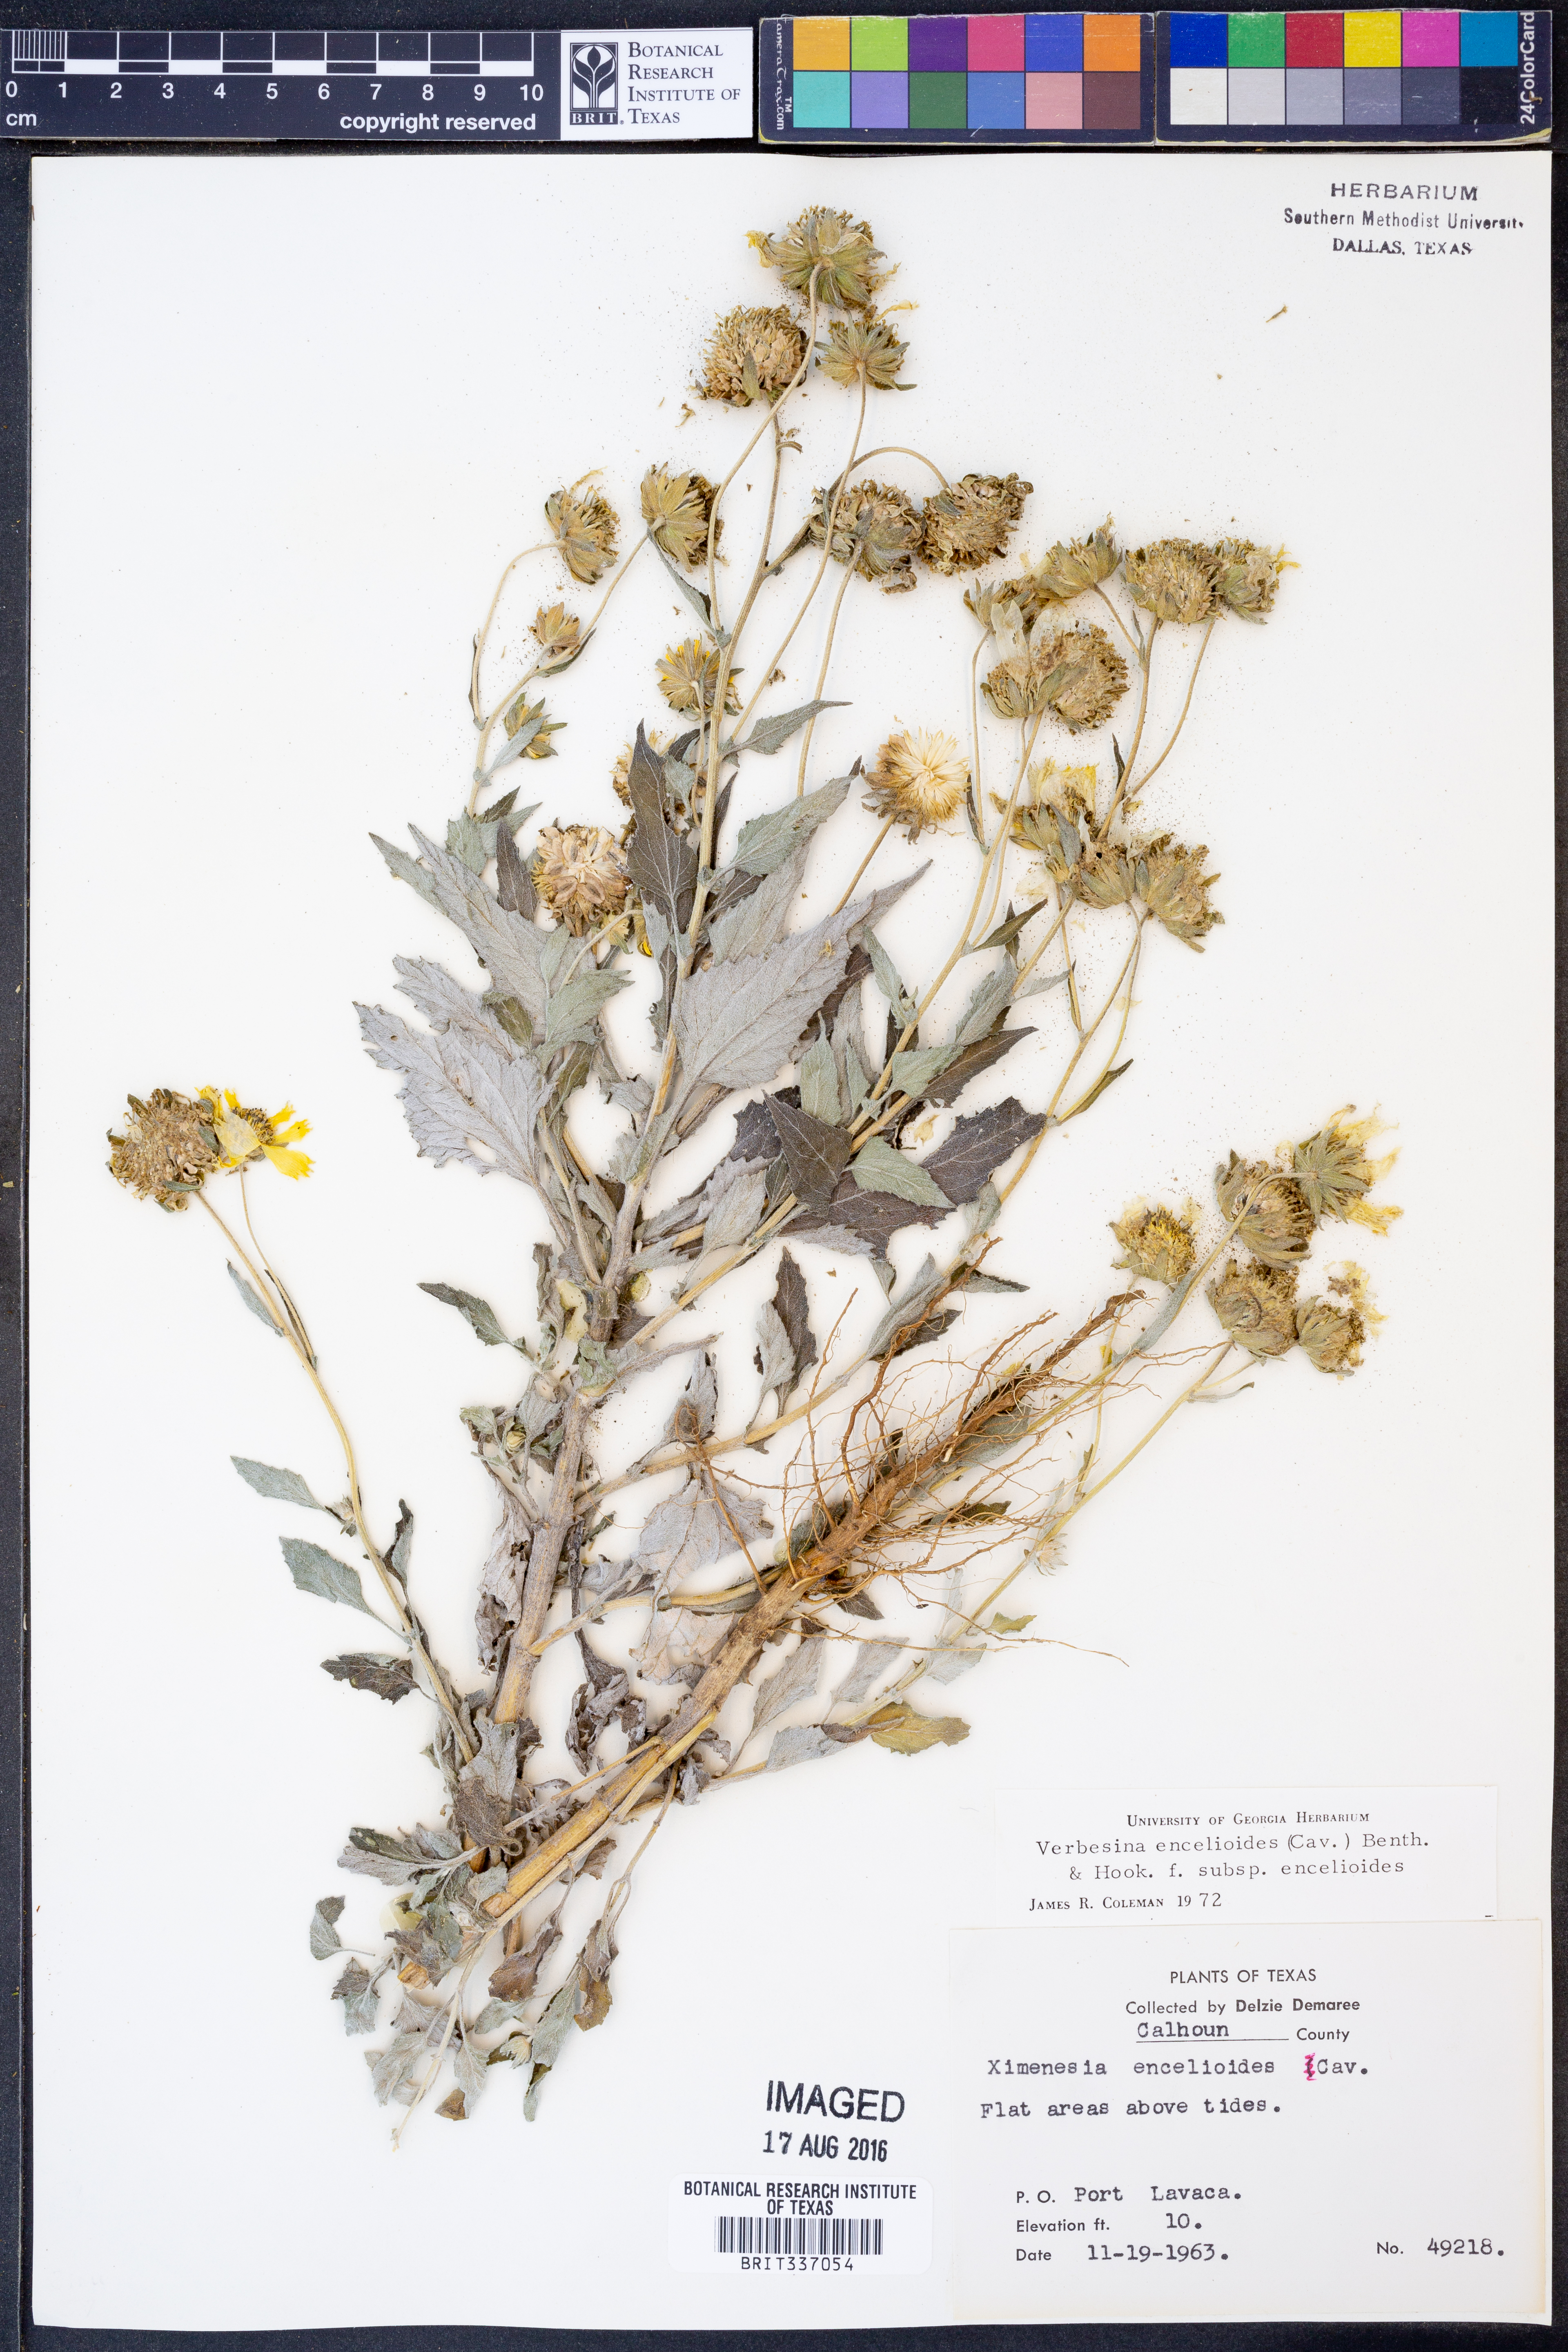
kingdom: Plantae
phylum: Tracheophyta
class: Magnoliopsida
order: Asterales
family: Asteraceae
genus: Verbesina
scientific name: Verbesina encelioides
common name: Golden crownbeard
